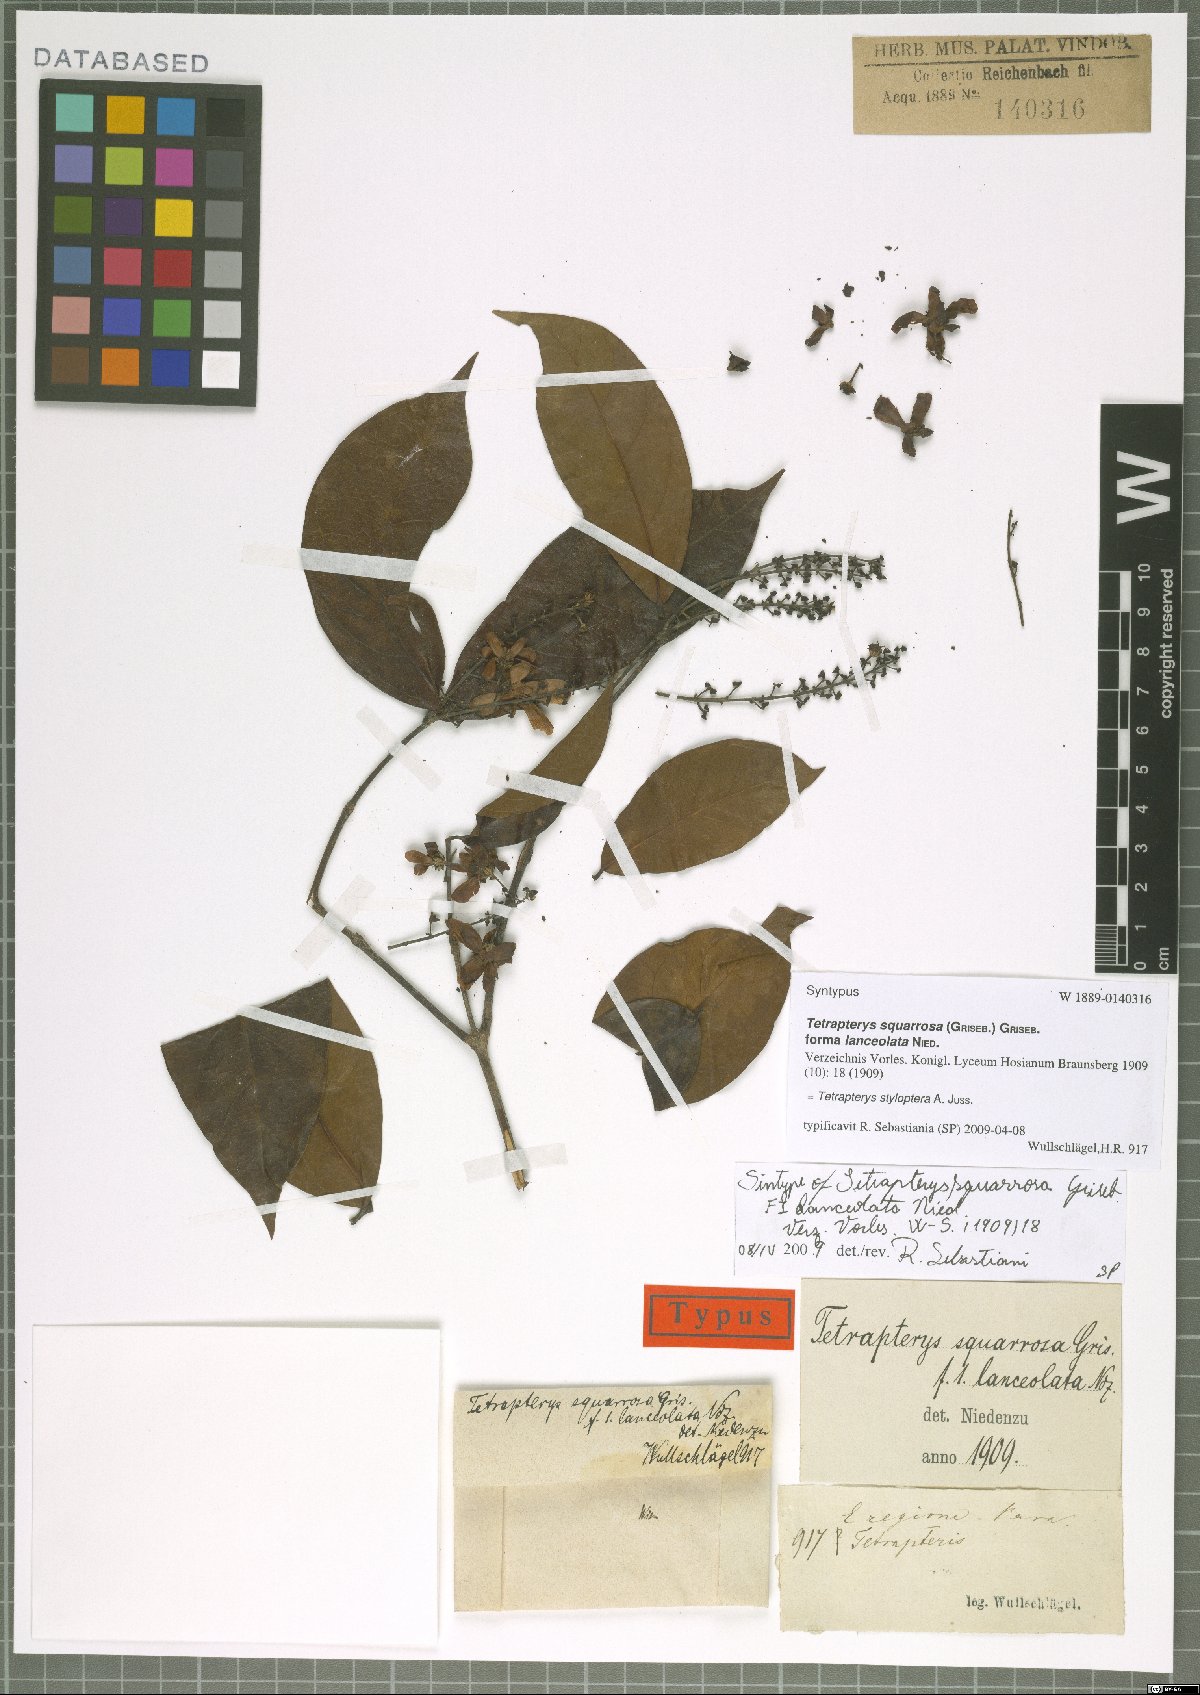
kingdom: Plantae
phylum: Tracheophyta
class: Magnoliopsida
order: Malpighiales
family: Malpighiaceae
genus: Glicophyllum
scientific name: Glicophyllum stylopterum
